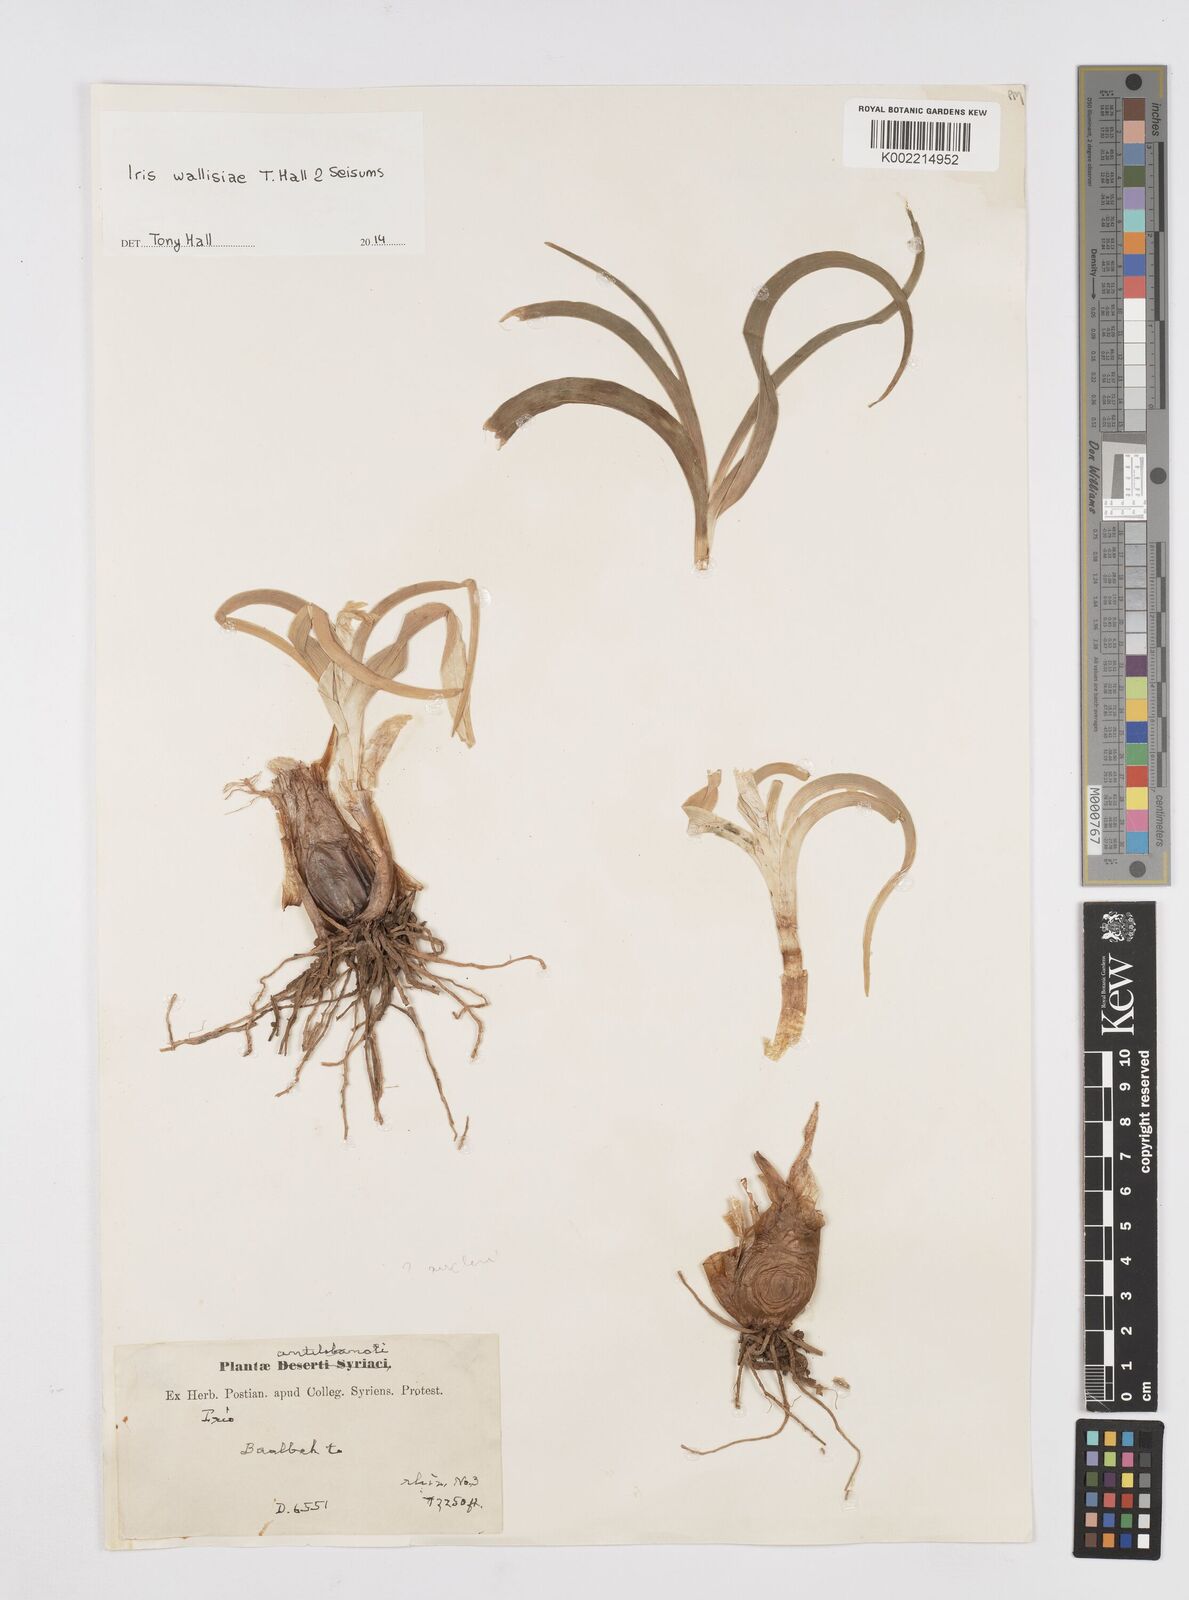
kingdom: Plantae
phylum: Tracheophyta
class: Liliopsida
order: Asparagales
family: Iridaceae
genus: Iris
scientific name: Iris wallisiae
